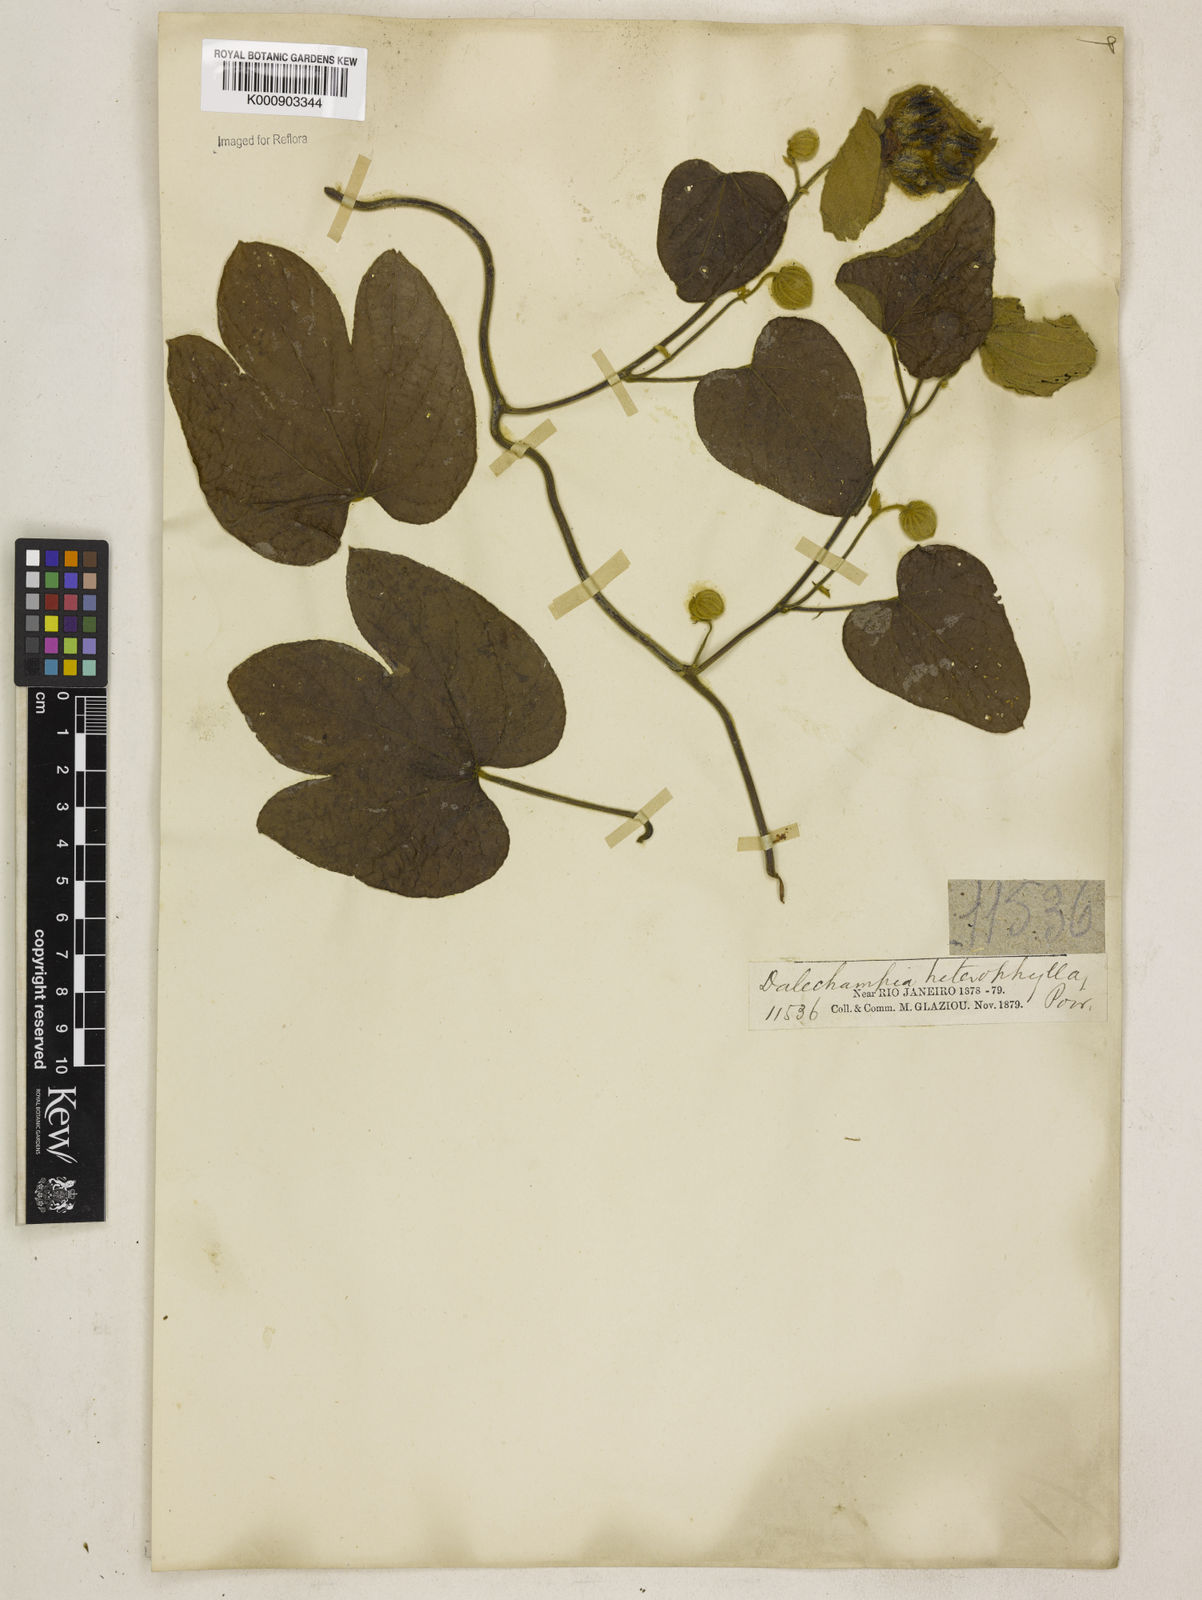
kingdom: Plantae
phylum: Tracheophyta
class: Magnoliopsida
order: Malpighiales
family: Euphorbiaceae
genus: Dalechampia
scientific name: Dalechampia tiliifolia
